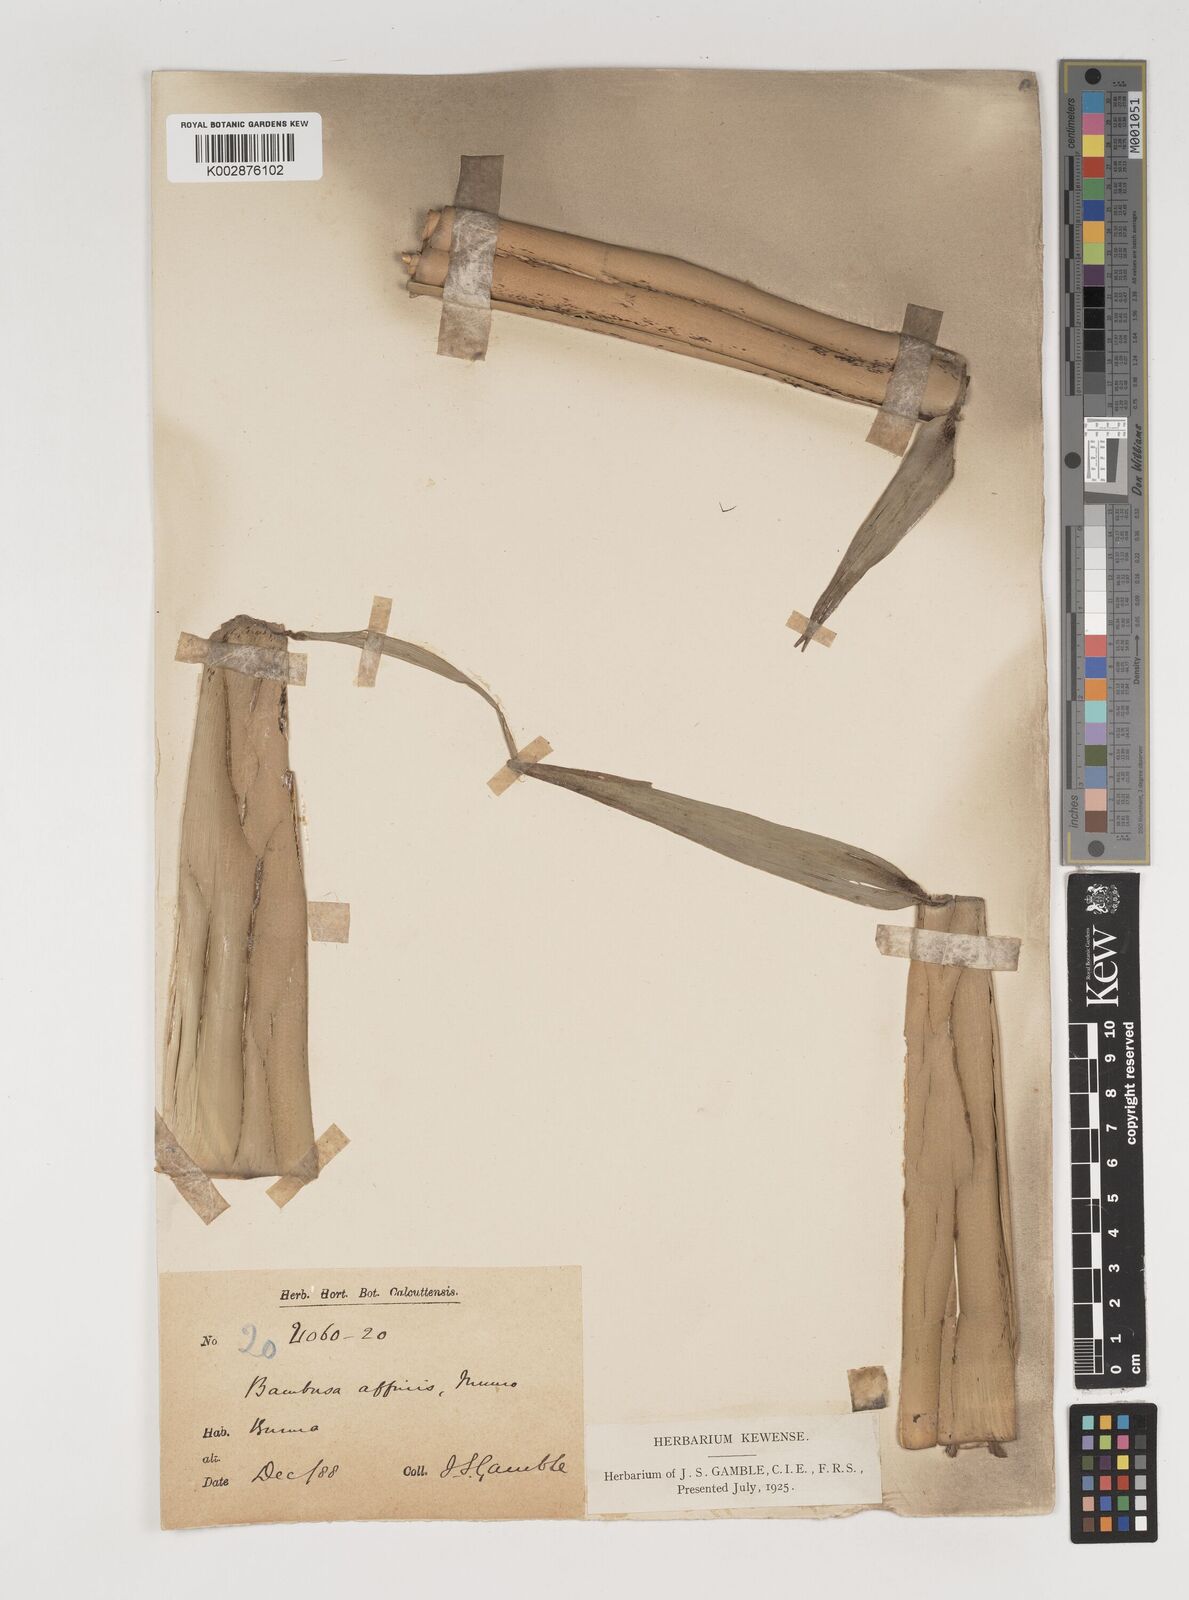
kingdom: Plantae
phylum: Tracheophyta
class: Liliopsida
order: Poales
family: Poaceae
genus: Bambusa
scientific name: Bambusa affinis
